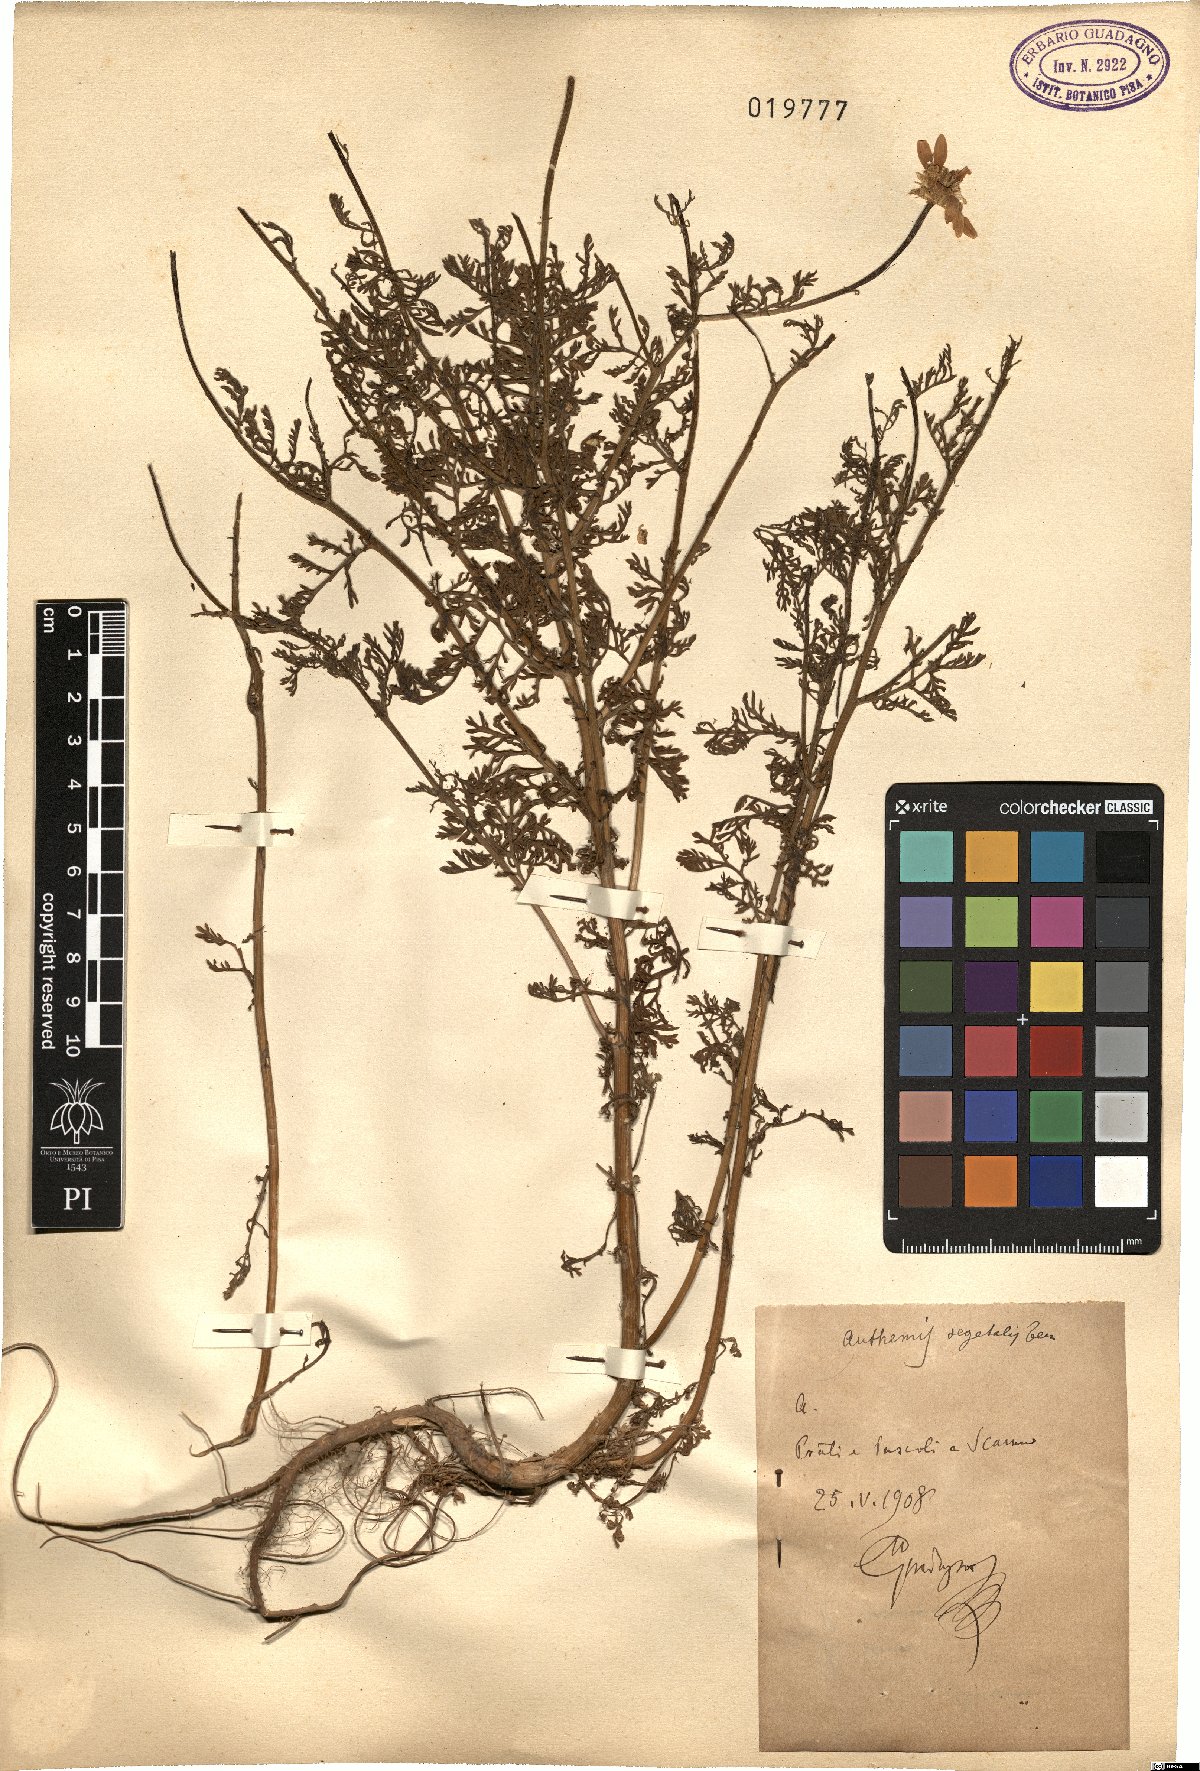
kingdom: Plantae
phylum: Tracheophyta
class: Magnoliopsida
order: Asterales
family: Asteraceae
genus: Cota
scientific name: Cota segetalis
